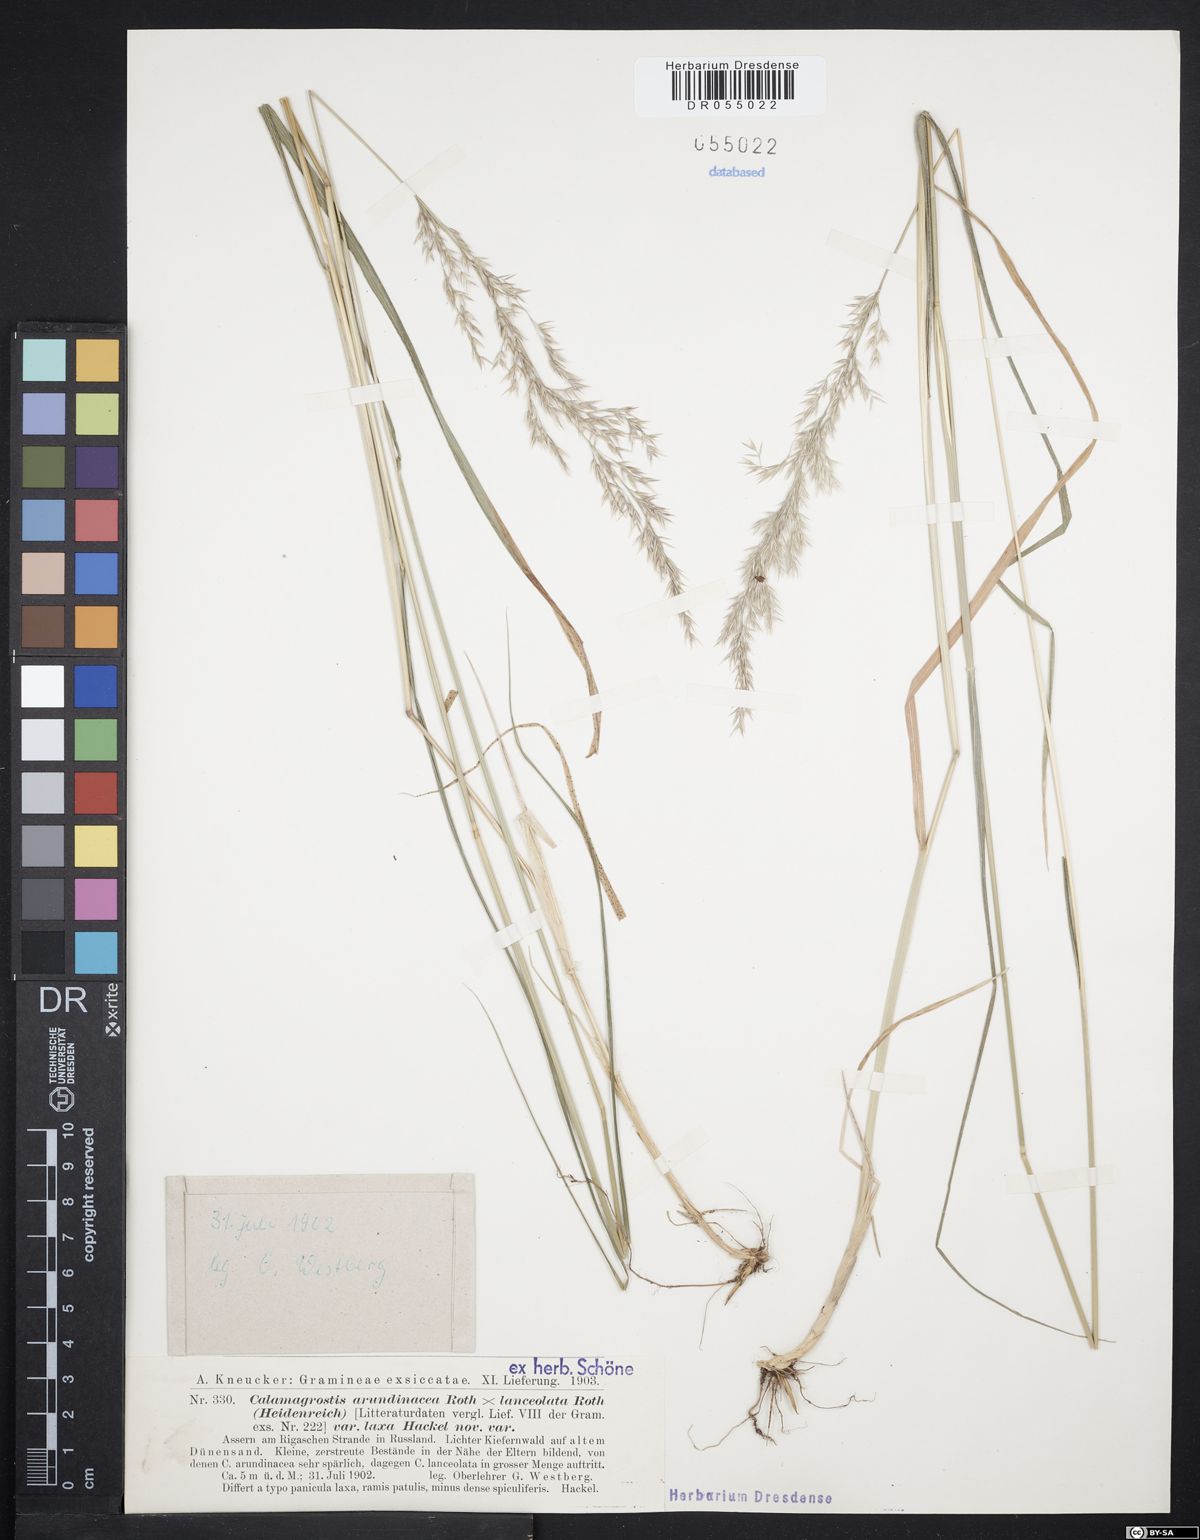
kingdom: Plantae
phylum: Tracheophyta
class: Liliopsida
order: Poales
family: Poaceae
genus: Calamagrostis
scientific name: Calamagrostis hartmaniana
